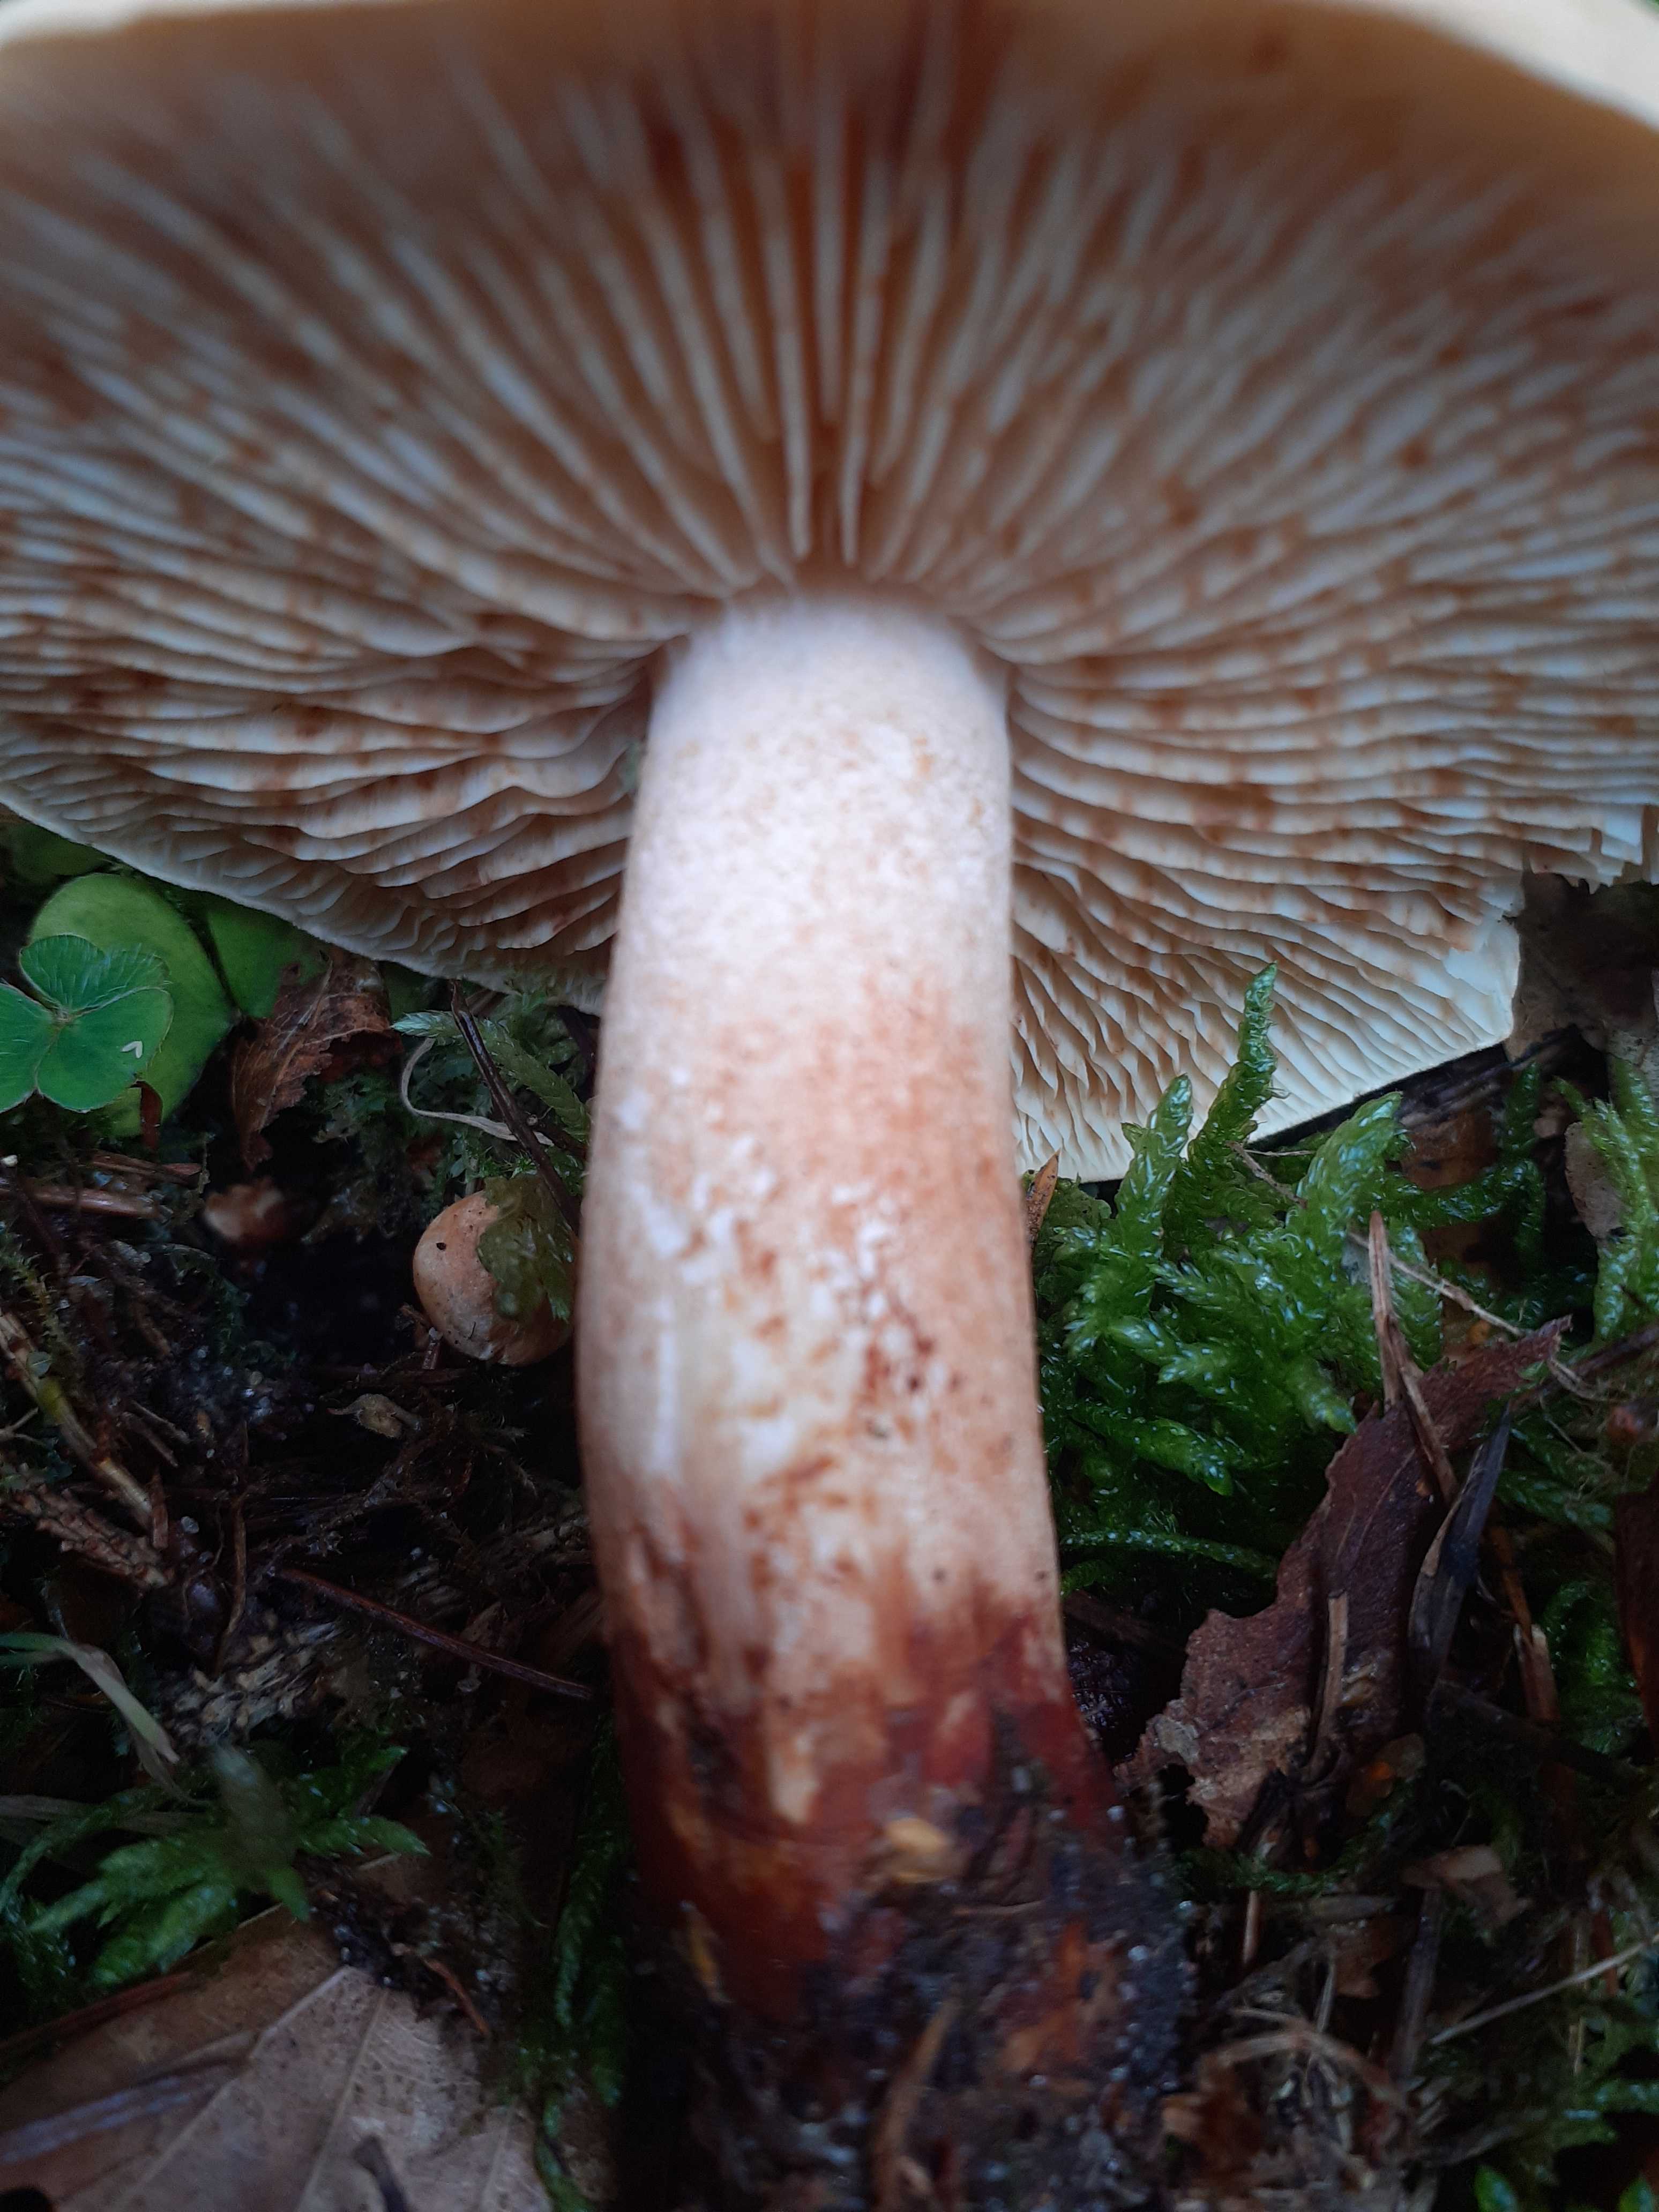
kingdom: Fungi
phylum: Basidiomycota
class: Agaricomycetes
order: Agaricales
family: Tricholomataceae
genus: Tricholoma
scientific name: Tricholoma psammopus
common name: grynstokket ridderhat
